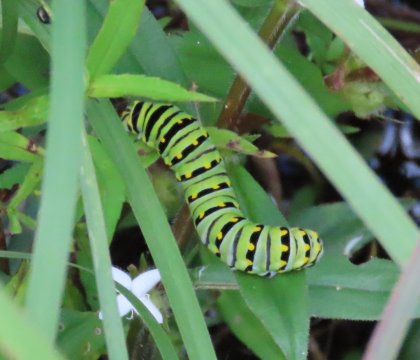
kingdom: Animalia
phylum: Arthropoda
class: Insecta
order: Lepidoptera
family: Papilionidae
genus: Papilio
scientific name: Papilio polyxenes
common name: Black Swallowtail
